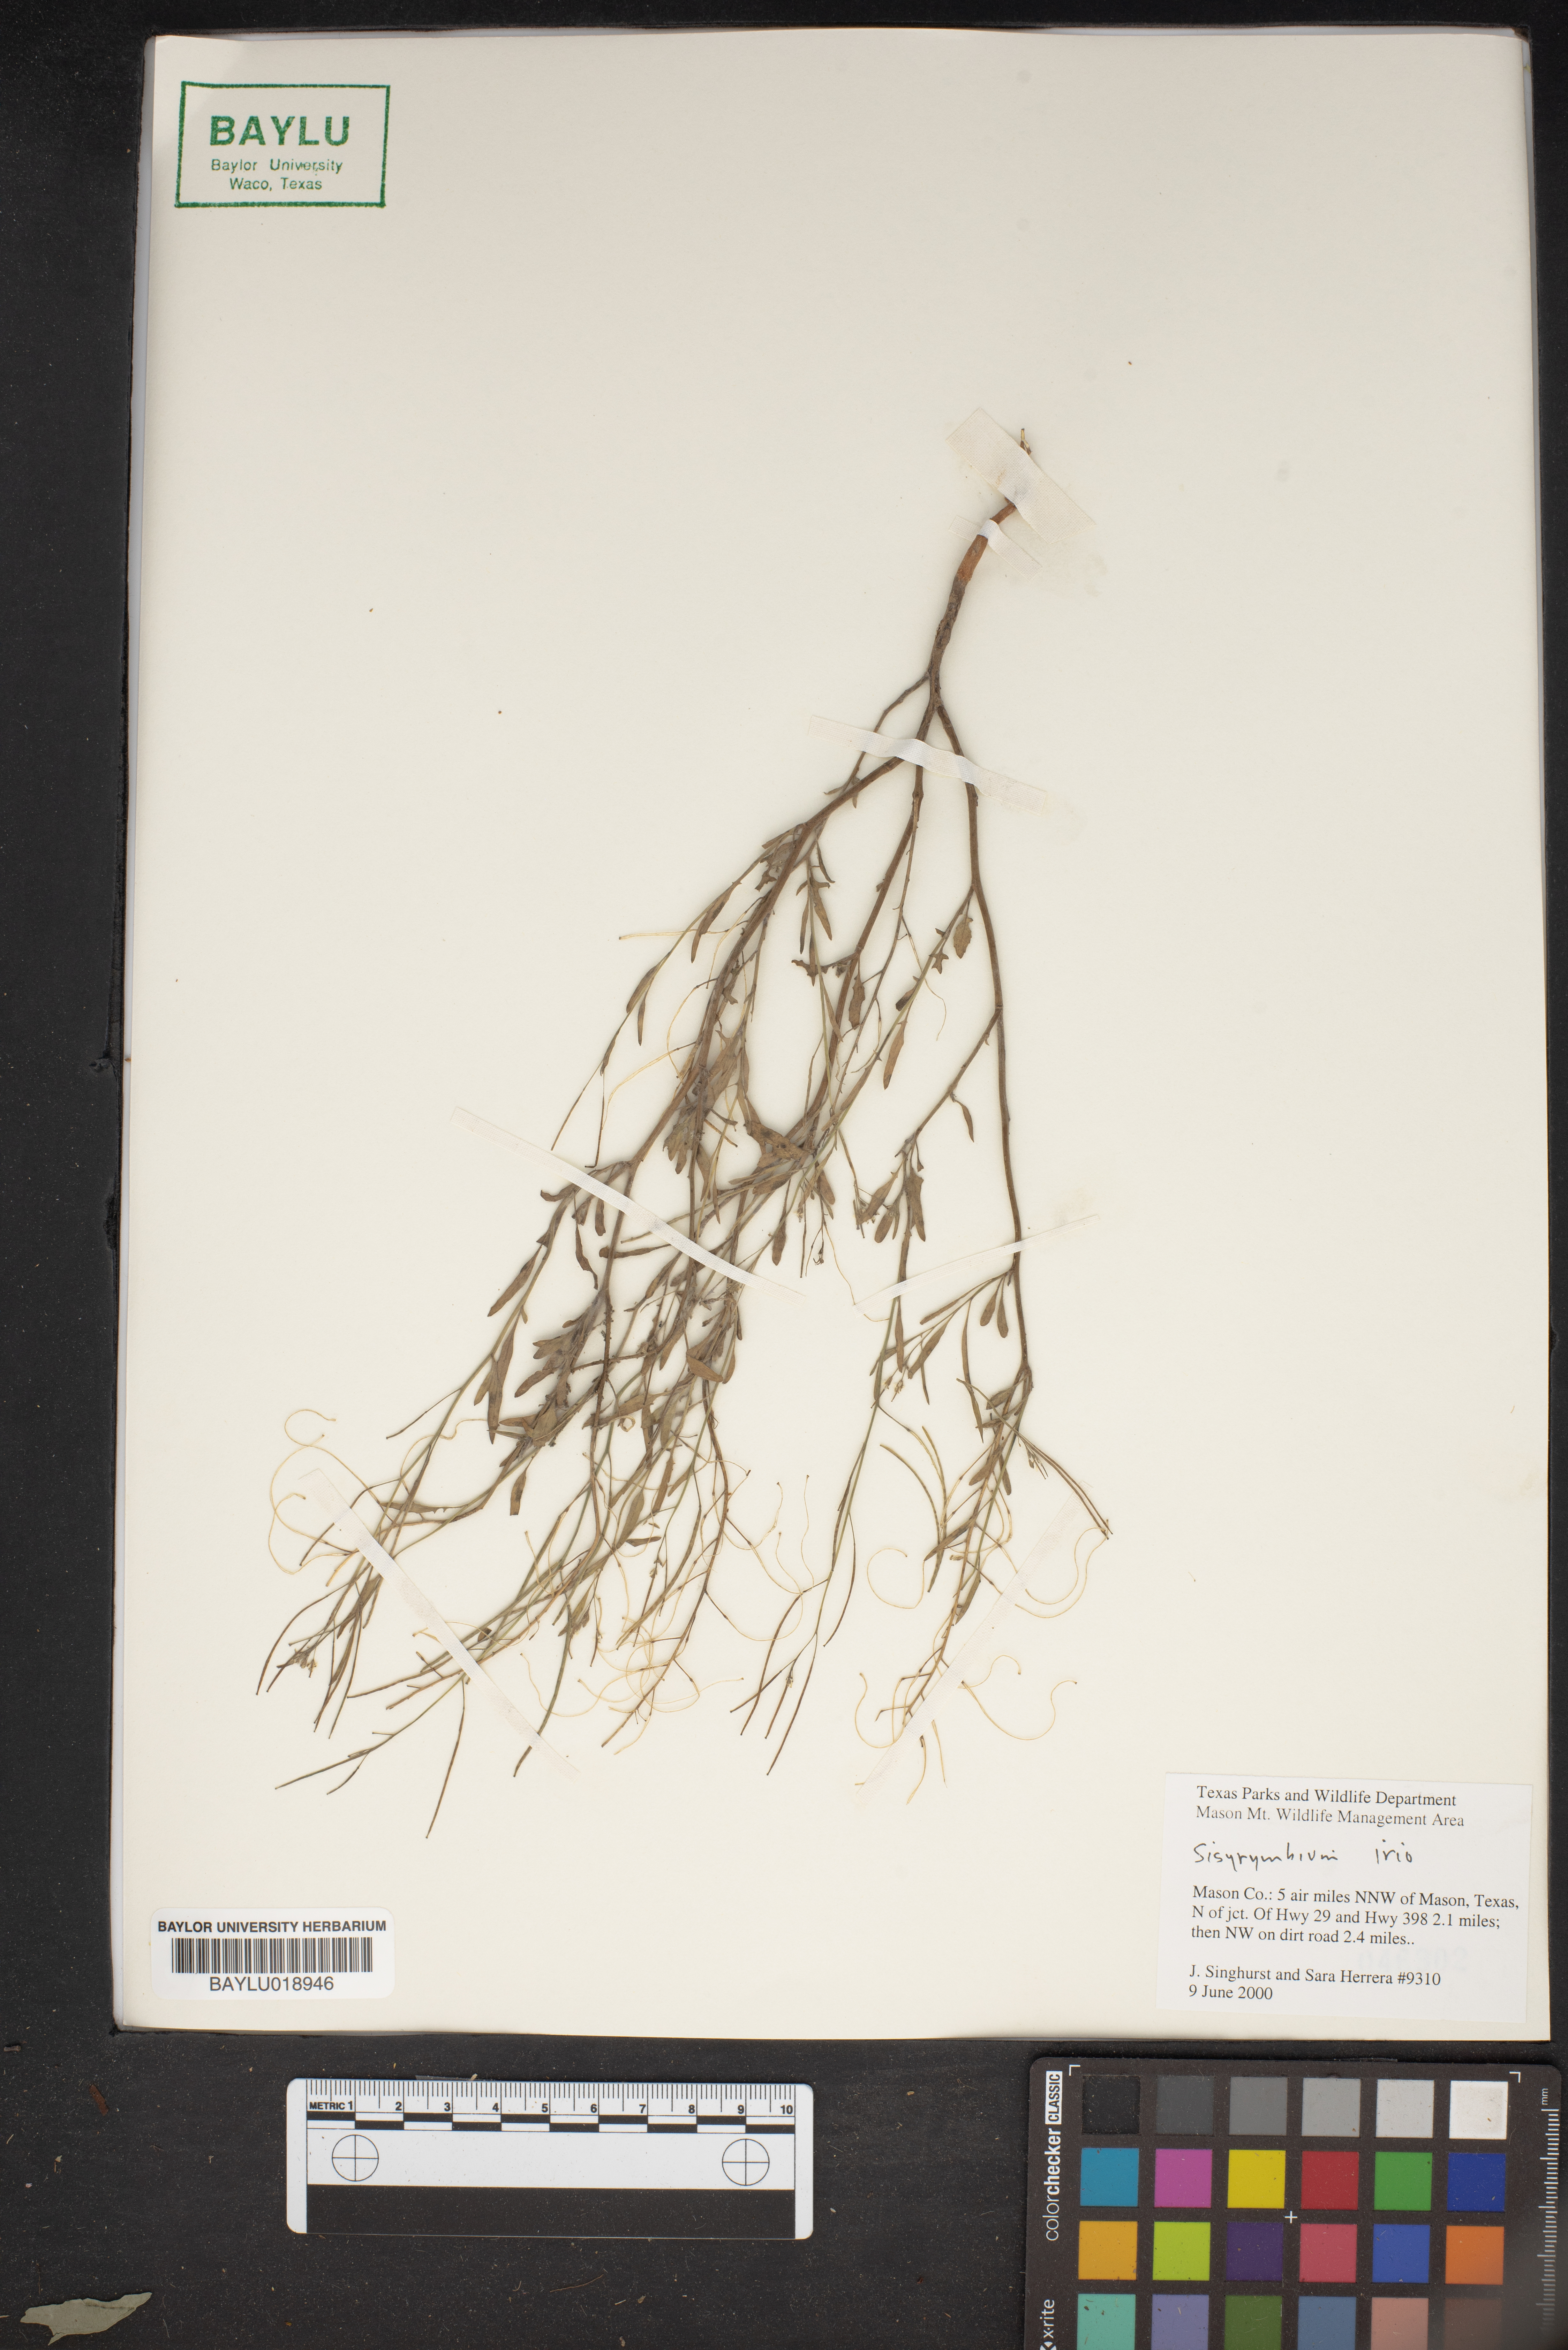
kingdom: Plantae
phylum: Tracheophyta
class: Magnoliopsida
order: Brassicales
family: Brassicaceae
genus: Sisymbrium
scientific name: Sisymbrium irio
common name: London rocket
